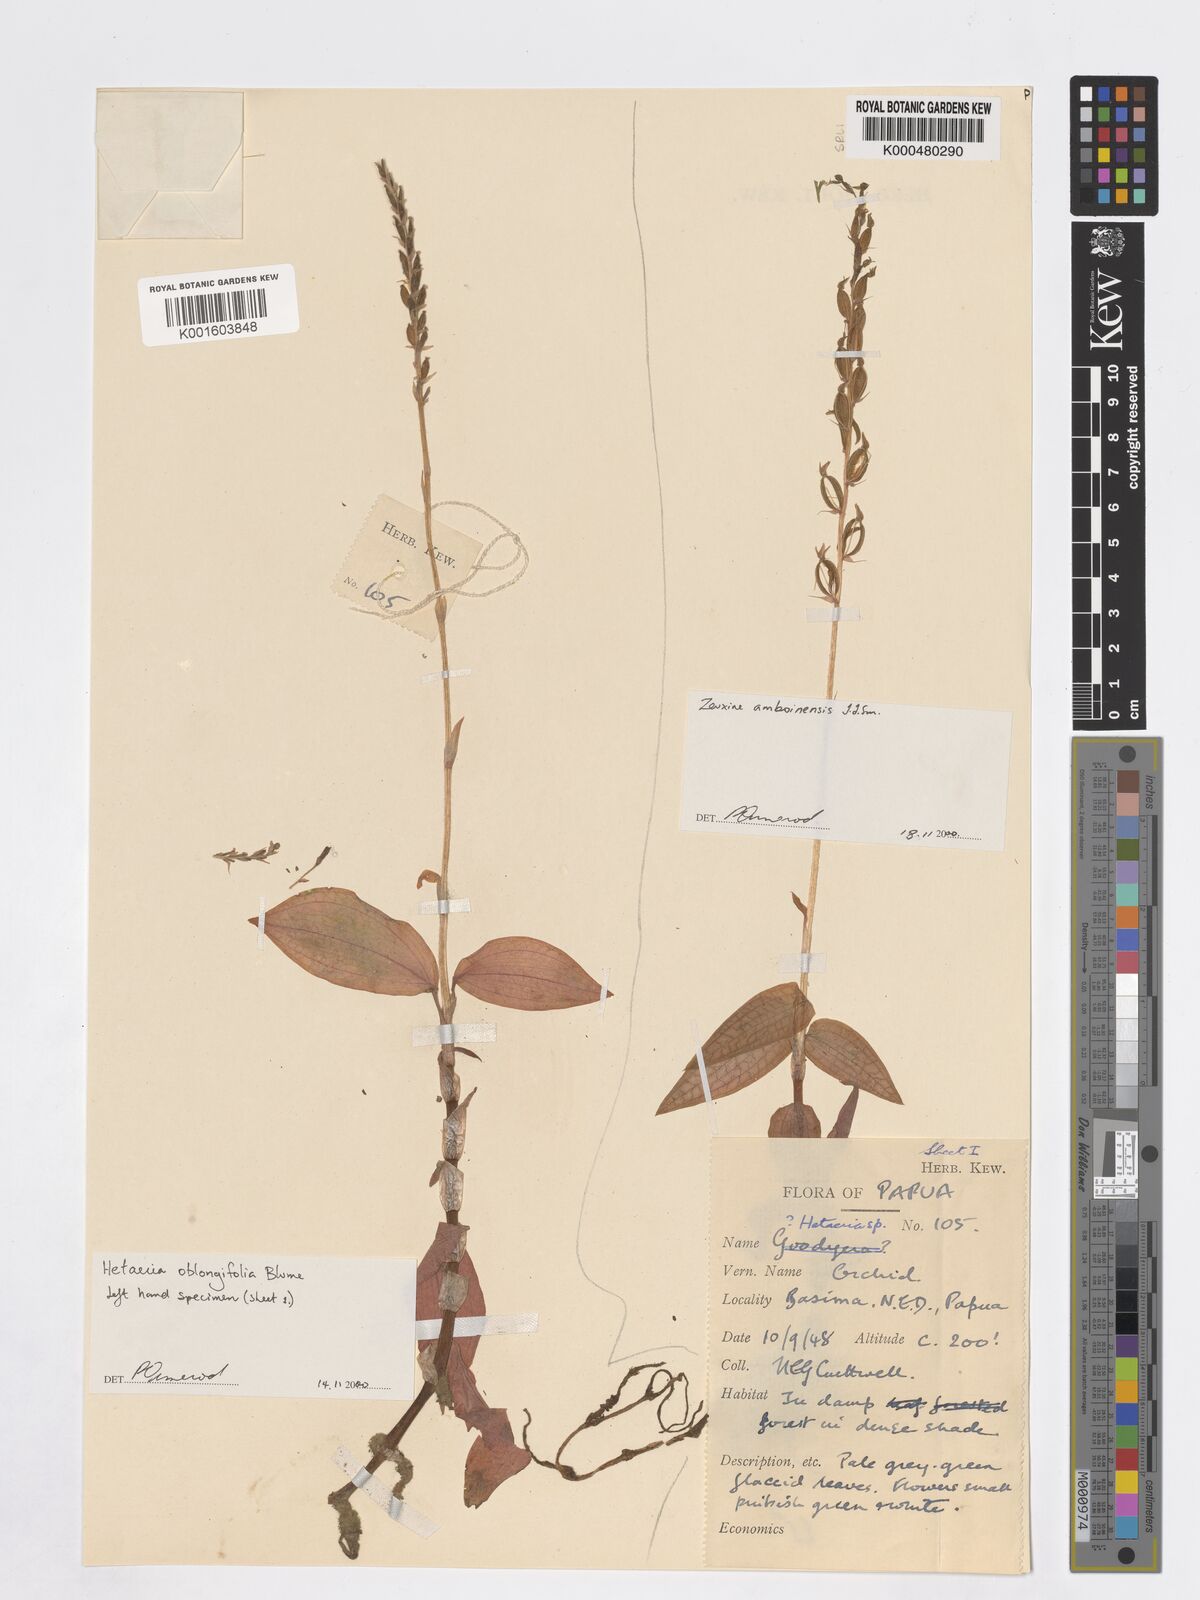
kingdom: Plantae
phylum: Tracheophyta
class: Liliopsida
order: Asparagales
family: Orchidaceae
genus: Zeuxine
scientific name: Zeuxine amboinensis
